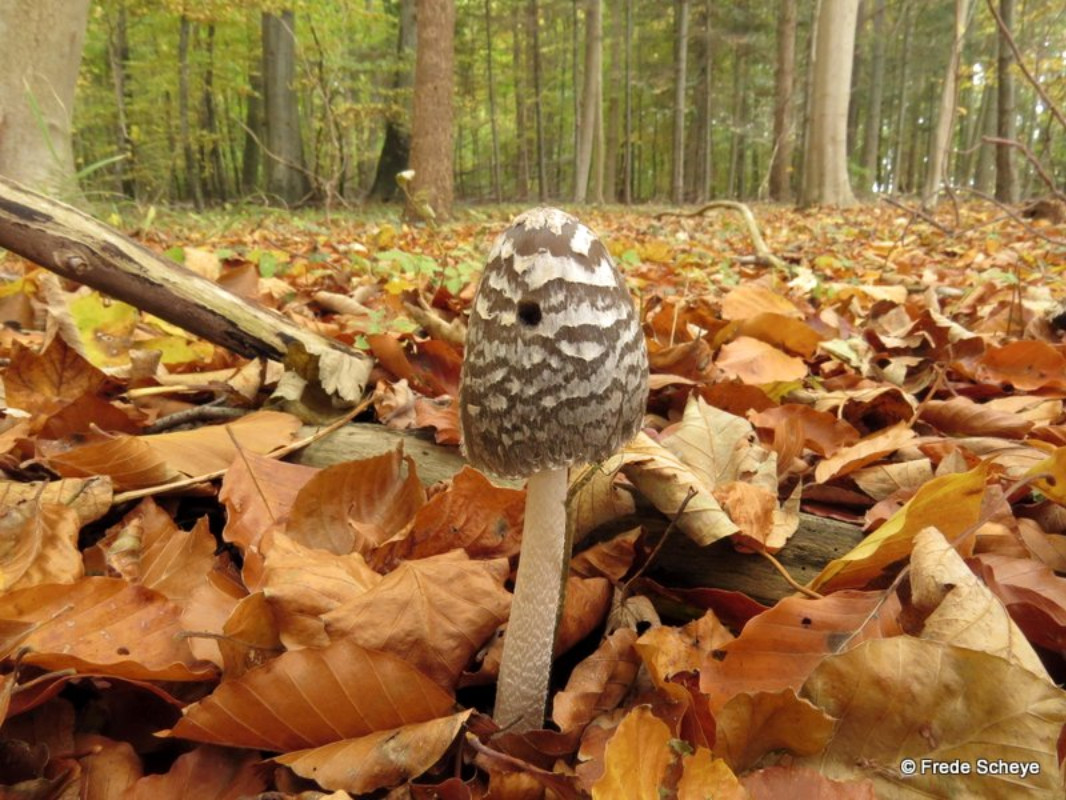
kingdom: Fungi
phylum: Basidiomycota
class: Agaricomycetes
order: Agaricales
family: Psathyrellaceae
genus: Coprinopsis
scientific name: Coprinopsis picacea
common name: skade-blækhat
